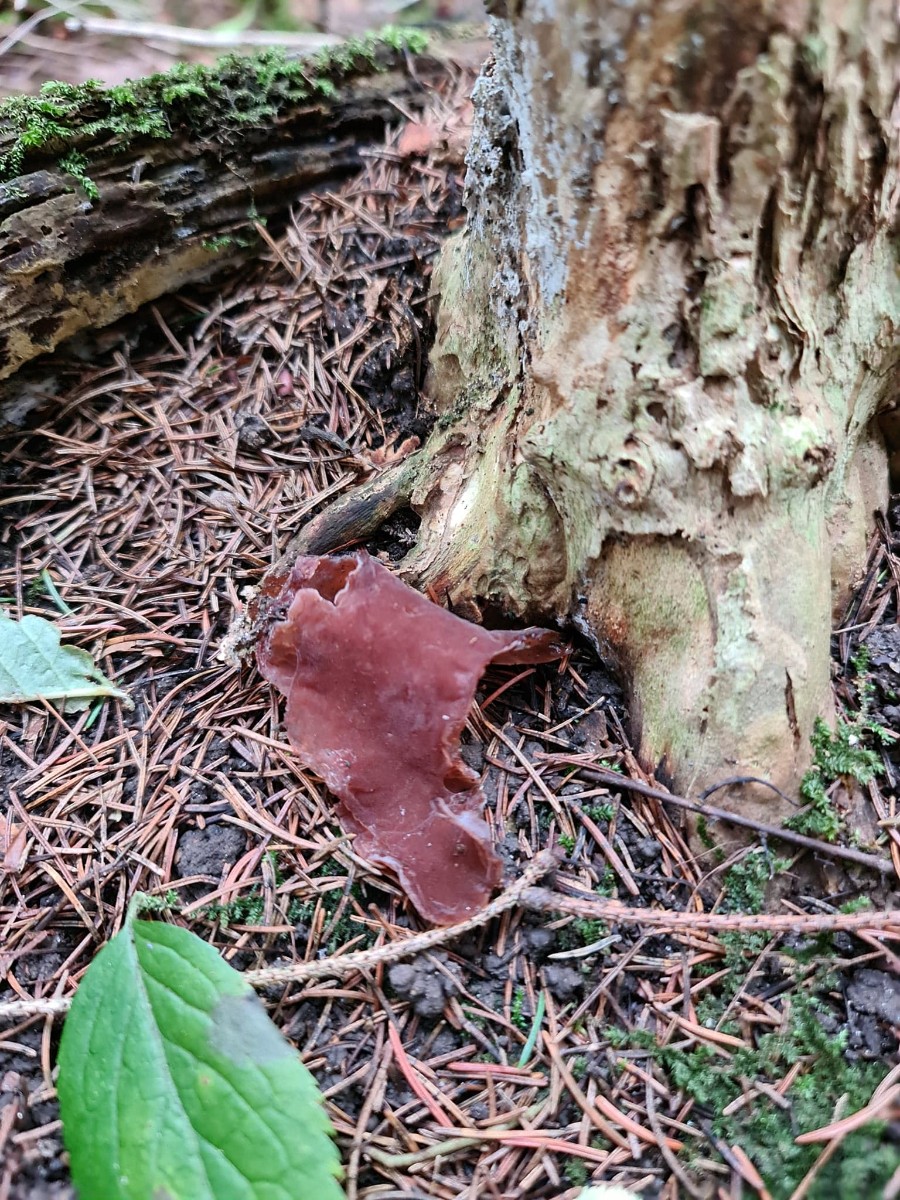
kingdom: Fungi
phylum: Basidiomycota
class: Agaricomycetes
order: Auriculariales
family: Auriculariaceae
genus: Auricularia
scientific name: Auricularia auricula-judae
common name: almindelig judasøre
